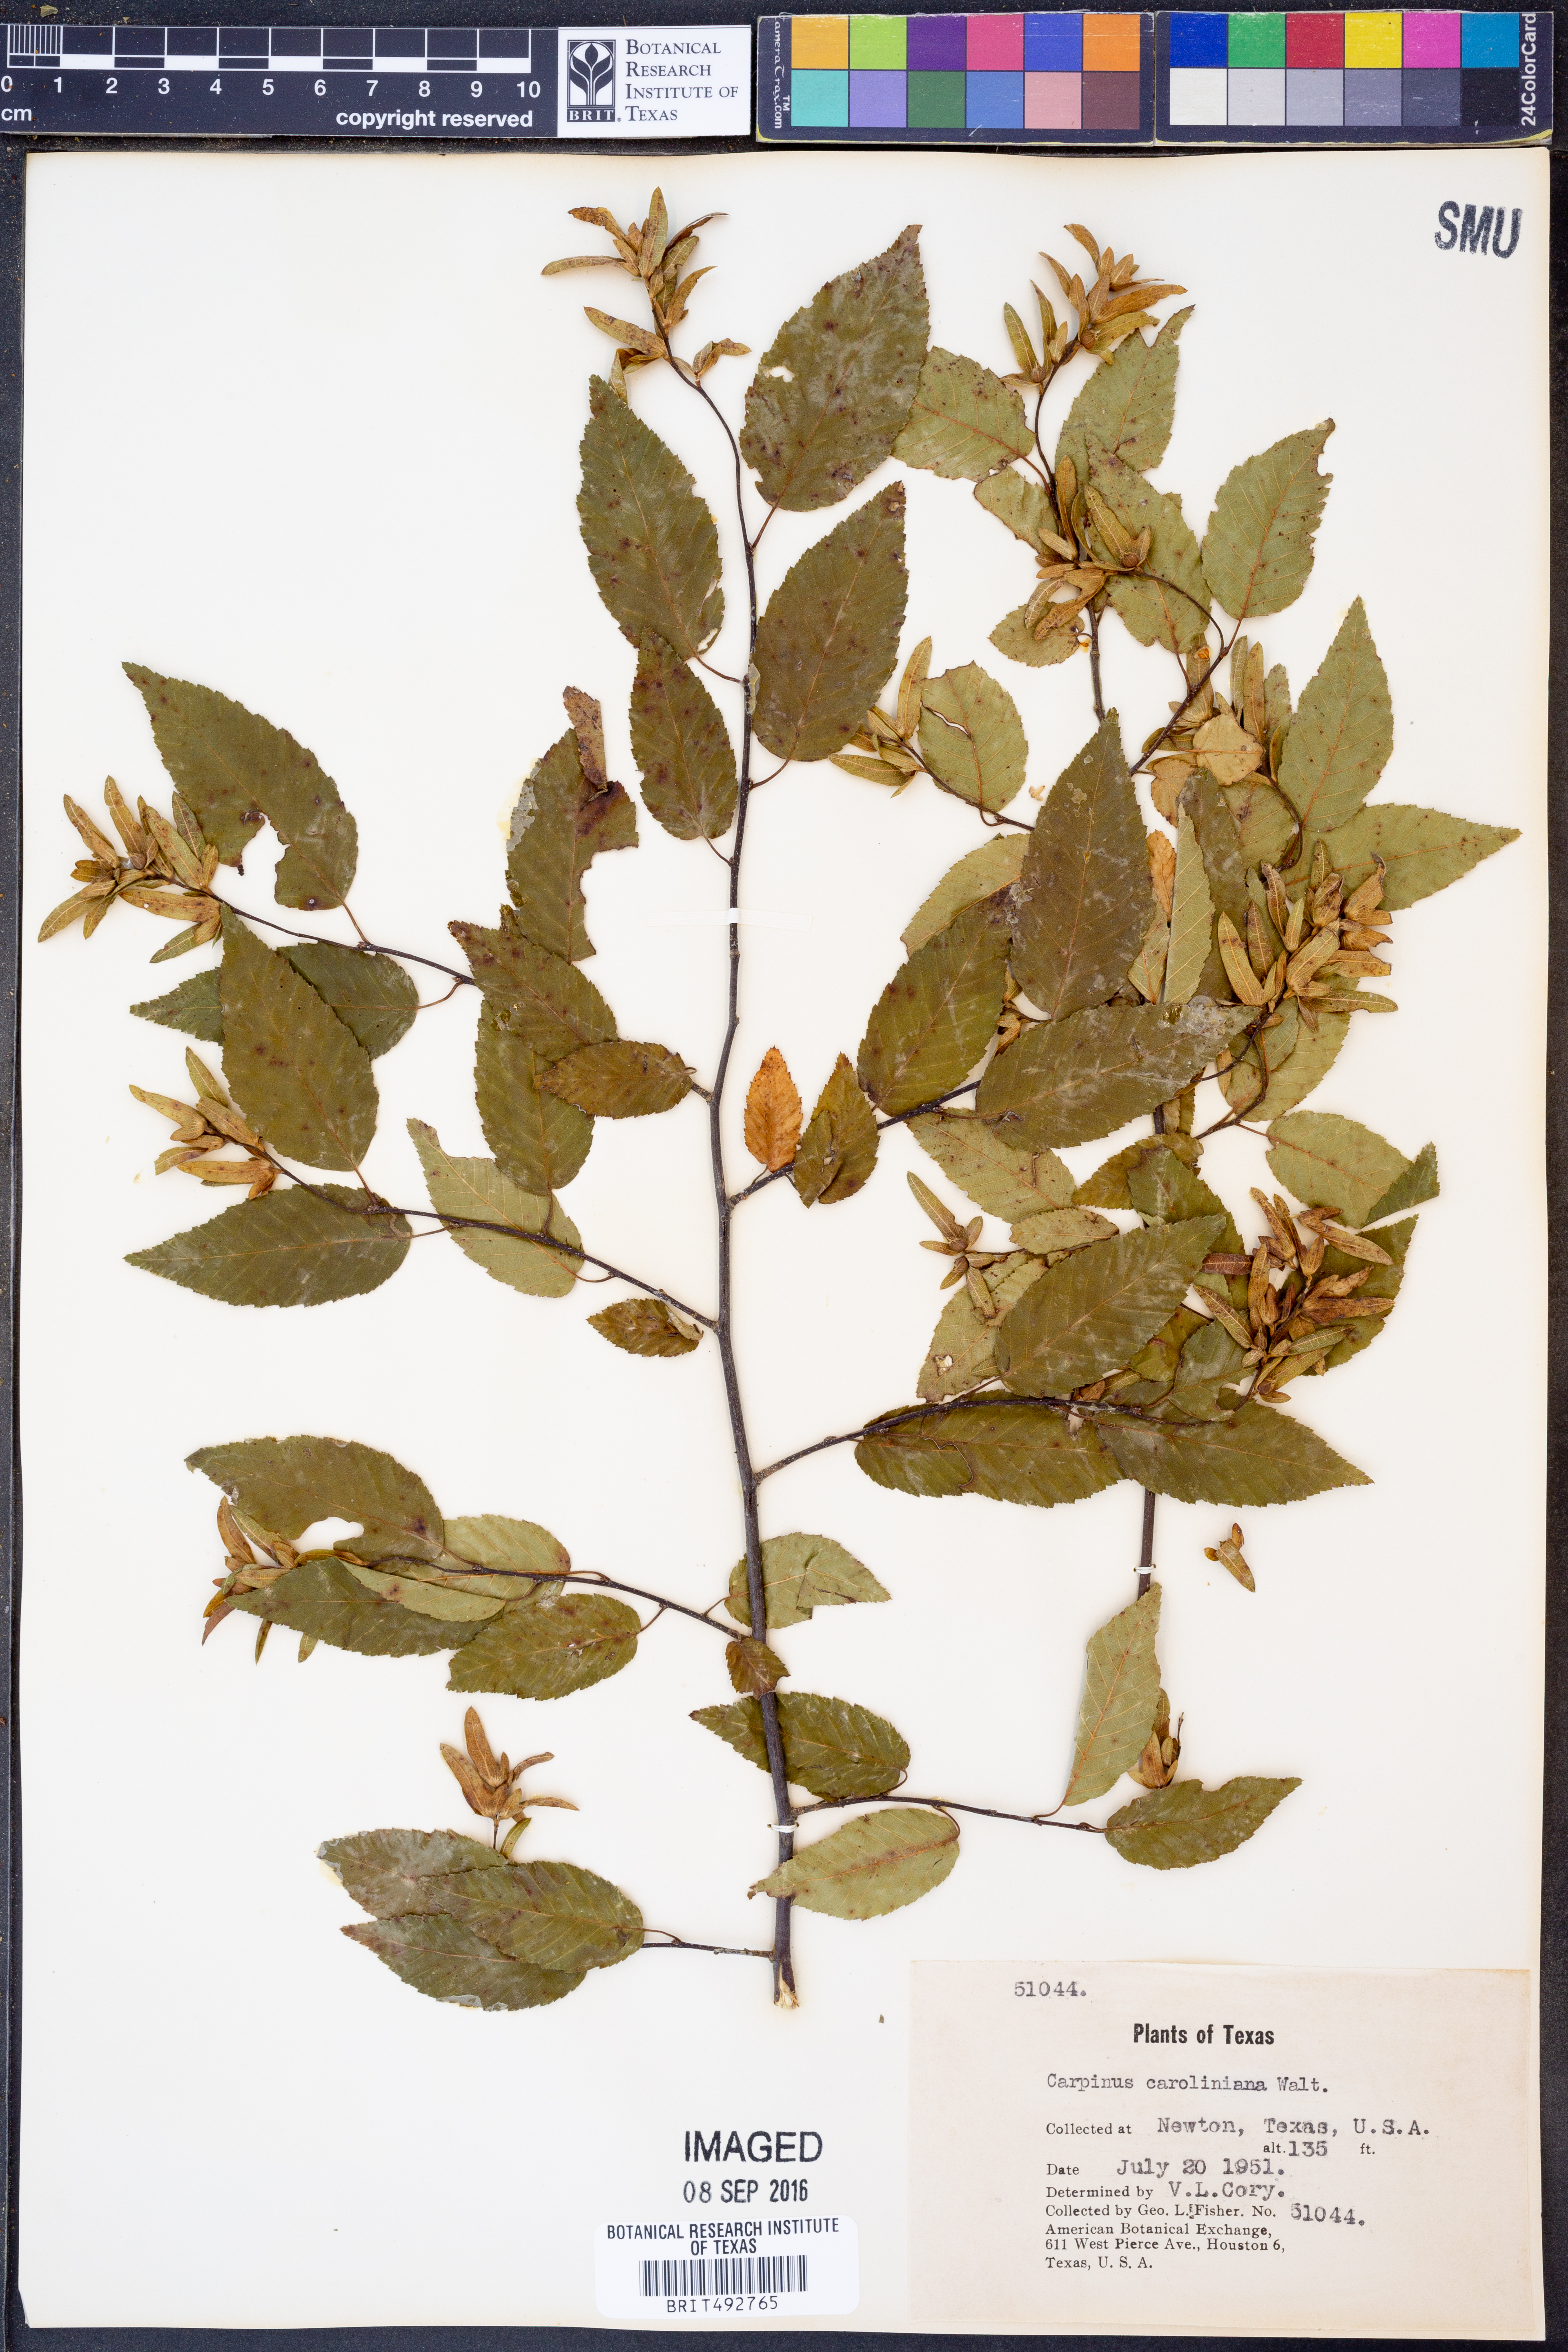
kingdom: Plantae
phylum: Tracheophyta
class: Magnoliopsida
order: Fagales
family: Betulaceae
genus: Carpinus
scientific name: Carpinus caroliniana
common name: American hornbeam
